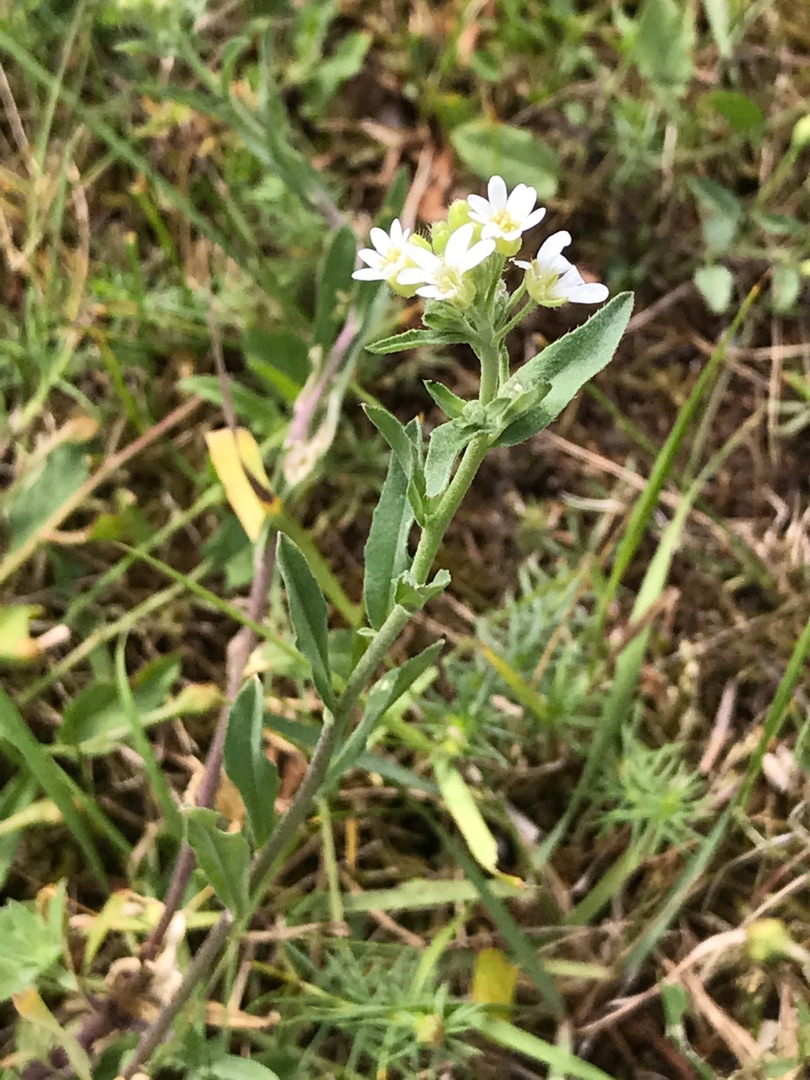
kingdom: Plantae
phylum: Tracheophyta
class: Magnoliopsida
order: Brassicales
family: Brassicaceae
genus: Berteroa
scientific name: Berteroa incana
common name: Kløvplade
